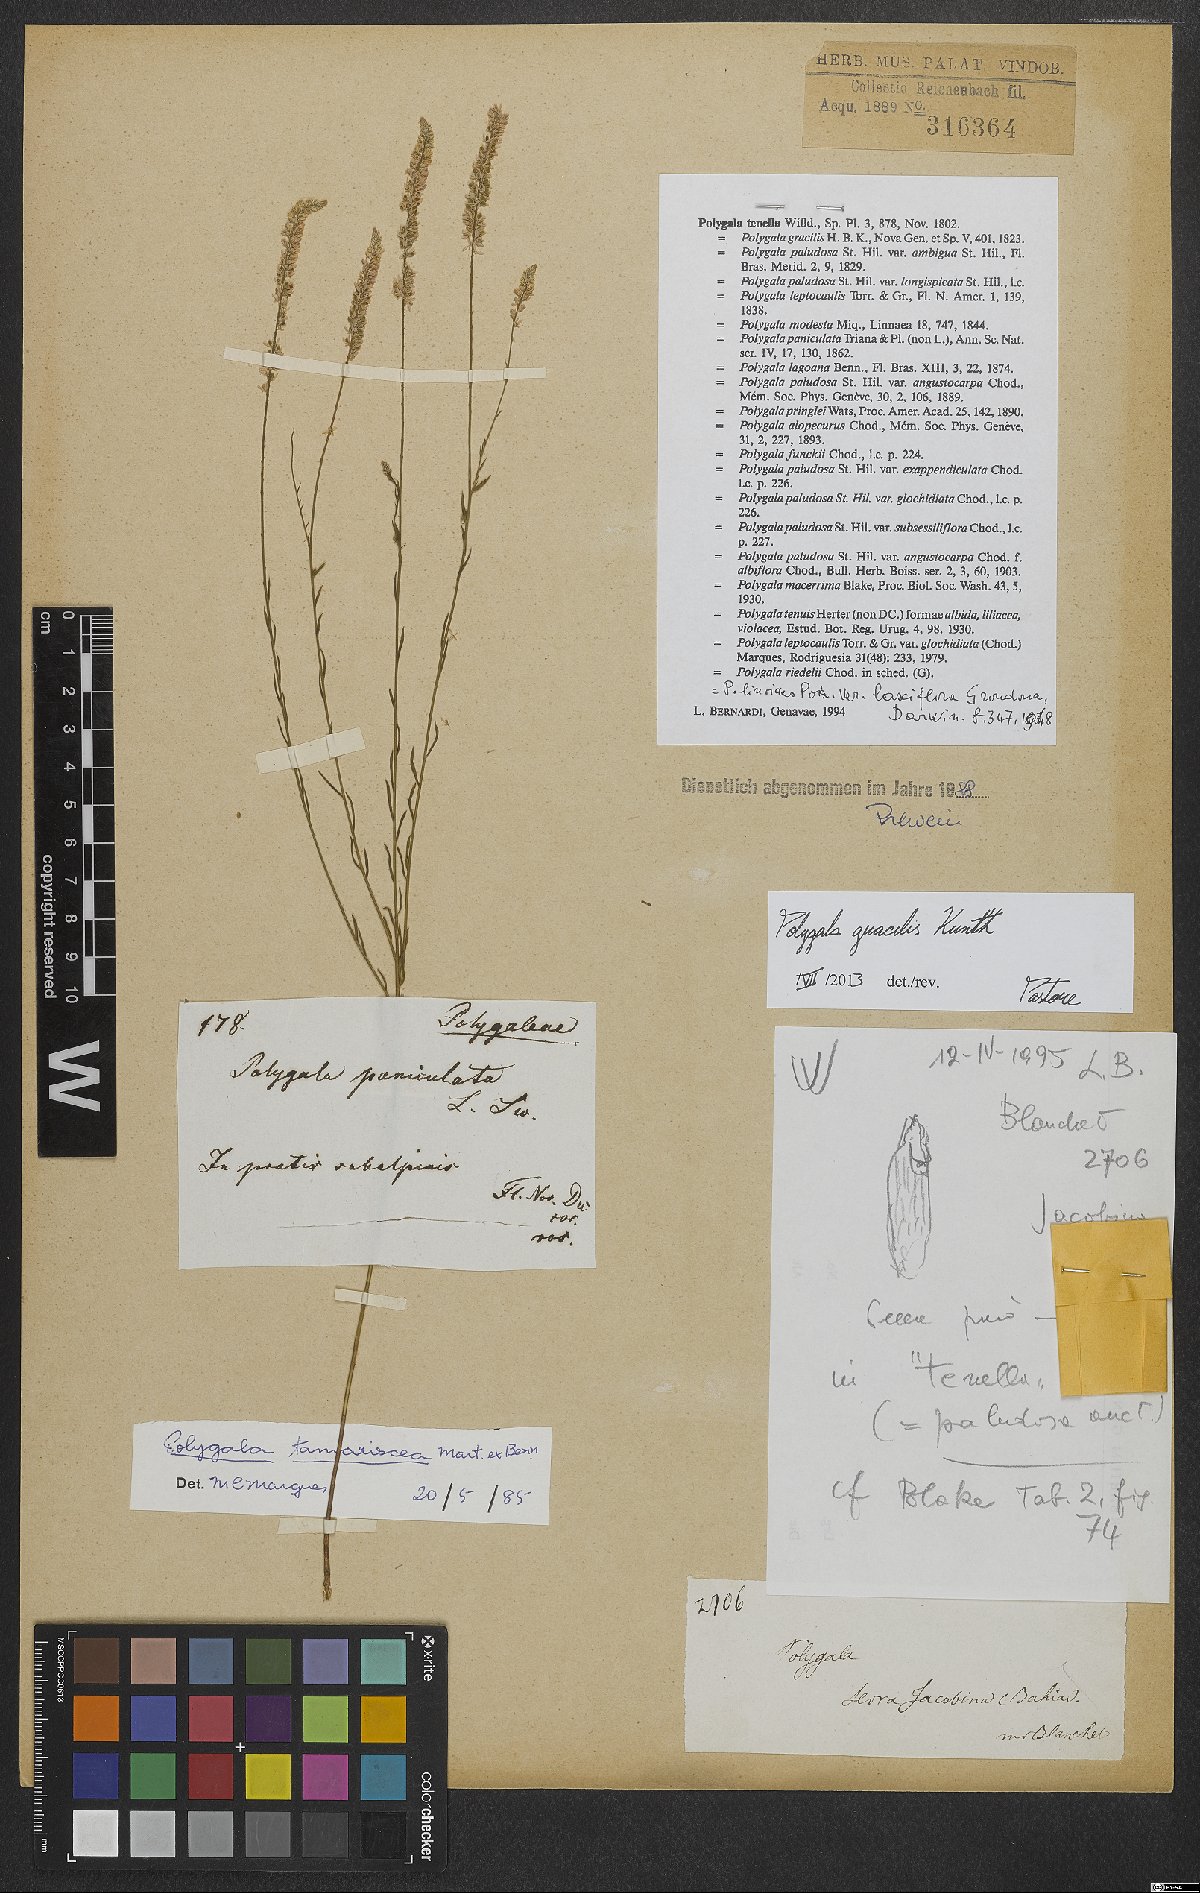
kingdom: Plantae
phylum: Tracheophyta
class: Magnoliopsida
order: Fabales
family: Polygalaceae
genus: Polygala
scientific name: Polygala gracilis
